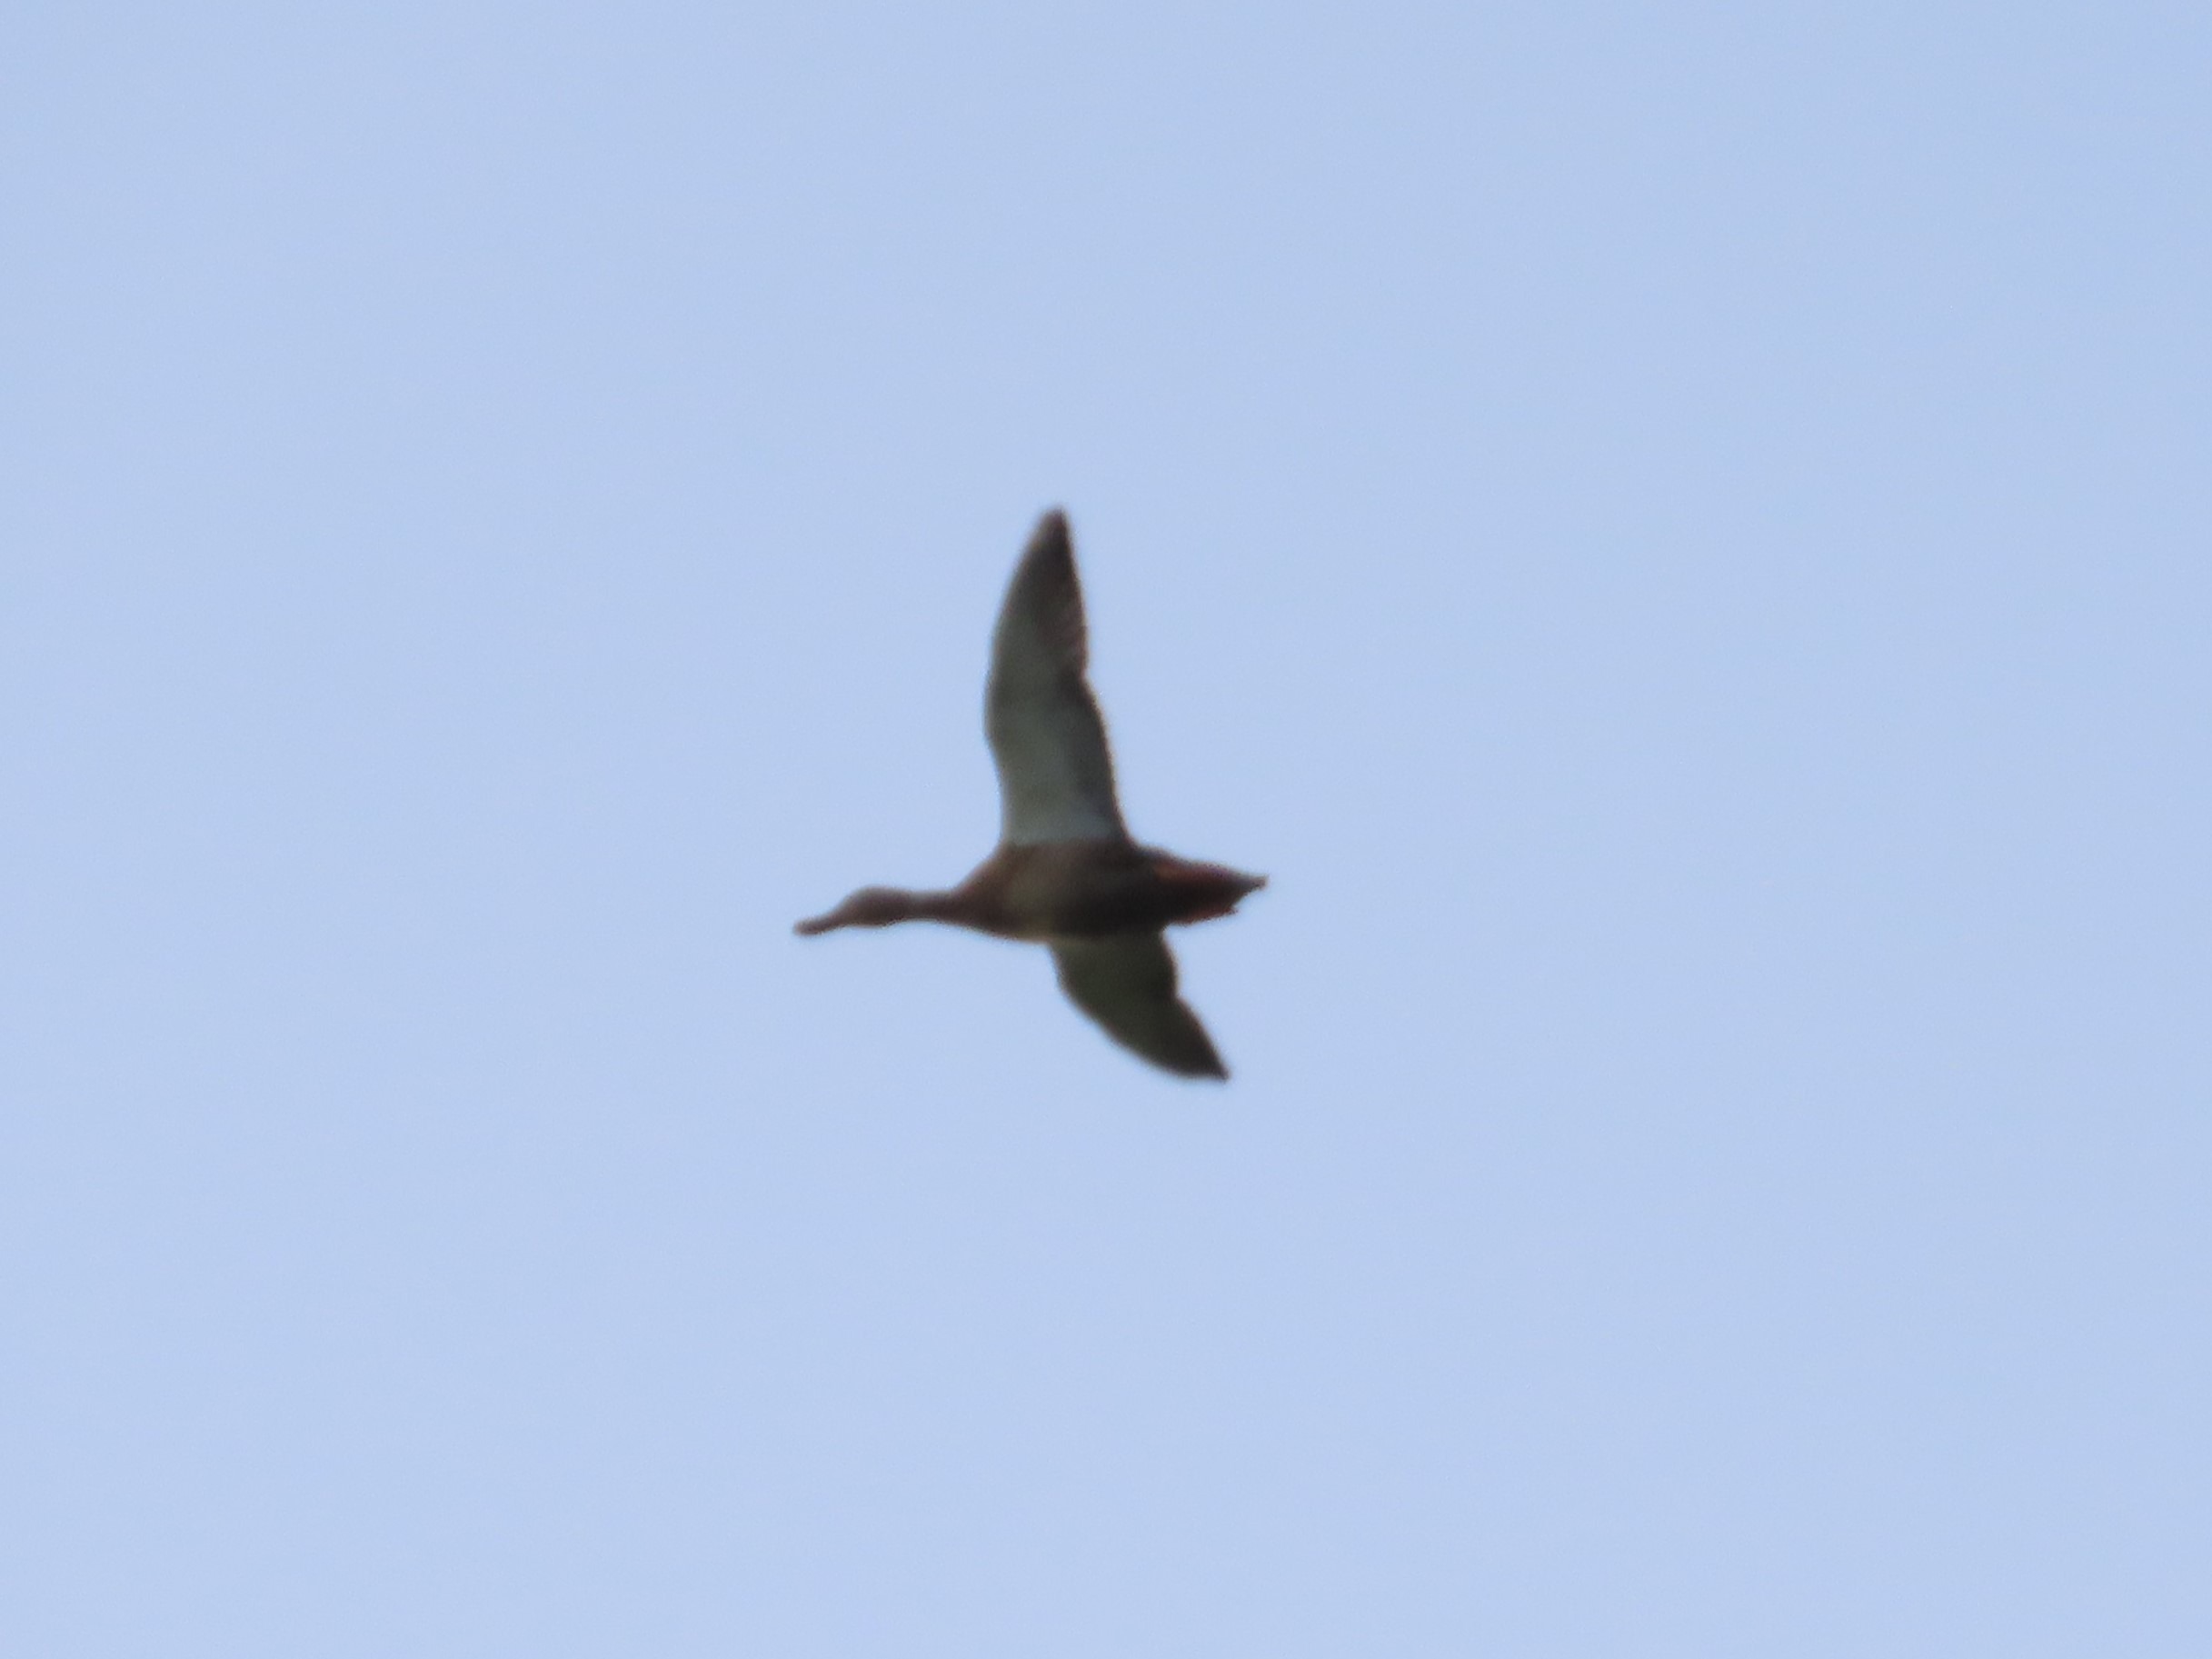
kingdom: Animalia
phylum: Chordata
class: Aves
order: Anseriformes
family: Anatidae
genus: Anas
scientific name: Anas platyrhynchos
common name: Gråand
